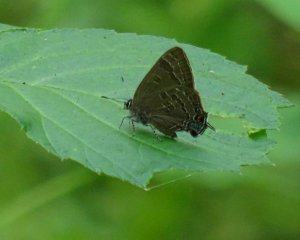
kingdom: Animalia
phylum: Arthropoda
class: Insecta
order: Lepidoptera
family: Lycaenidae
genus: Strymon
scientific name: Strymon caryaevorus
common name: Hickory Hairstreak
